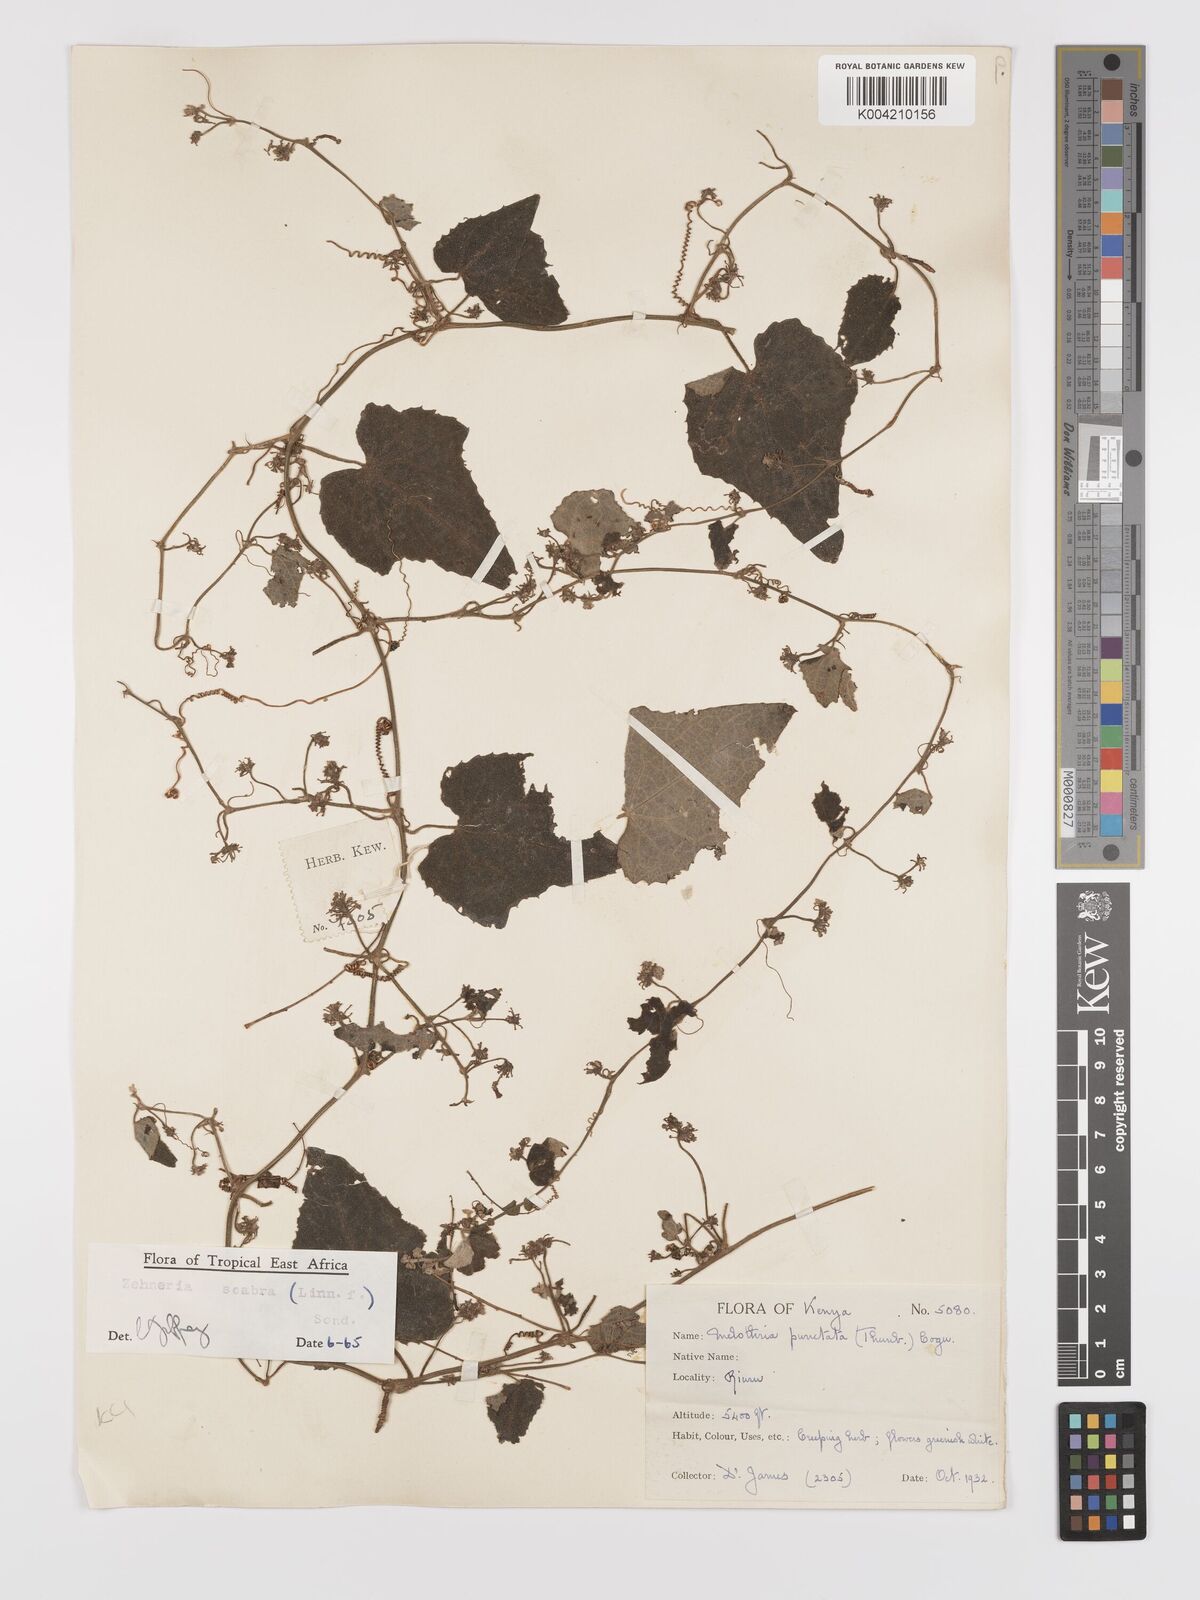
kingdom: Plantae
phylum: Tracheophyta
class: Magnoliopsida
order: Cucurbitales
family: Cucurbitaceae
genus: Zehneria
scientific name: Zehneria scabra
